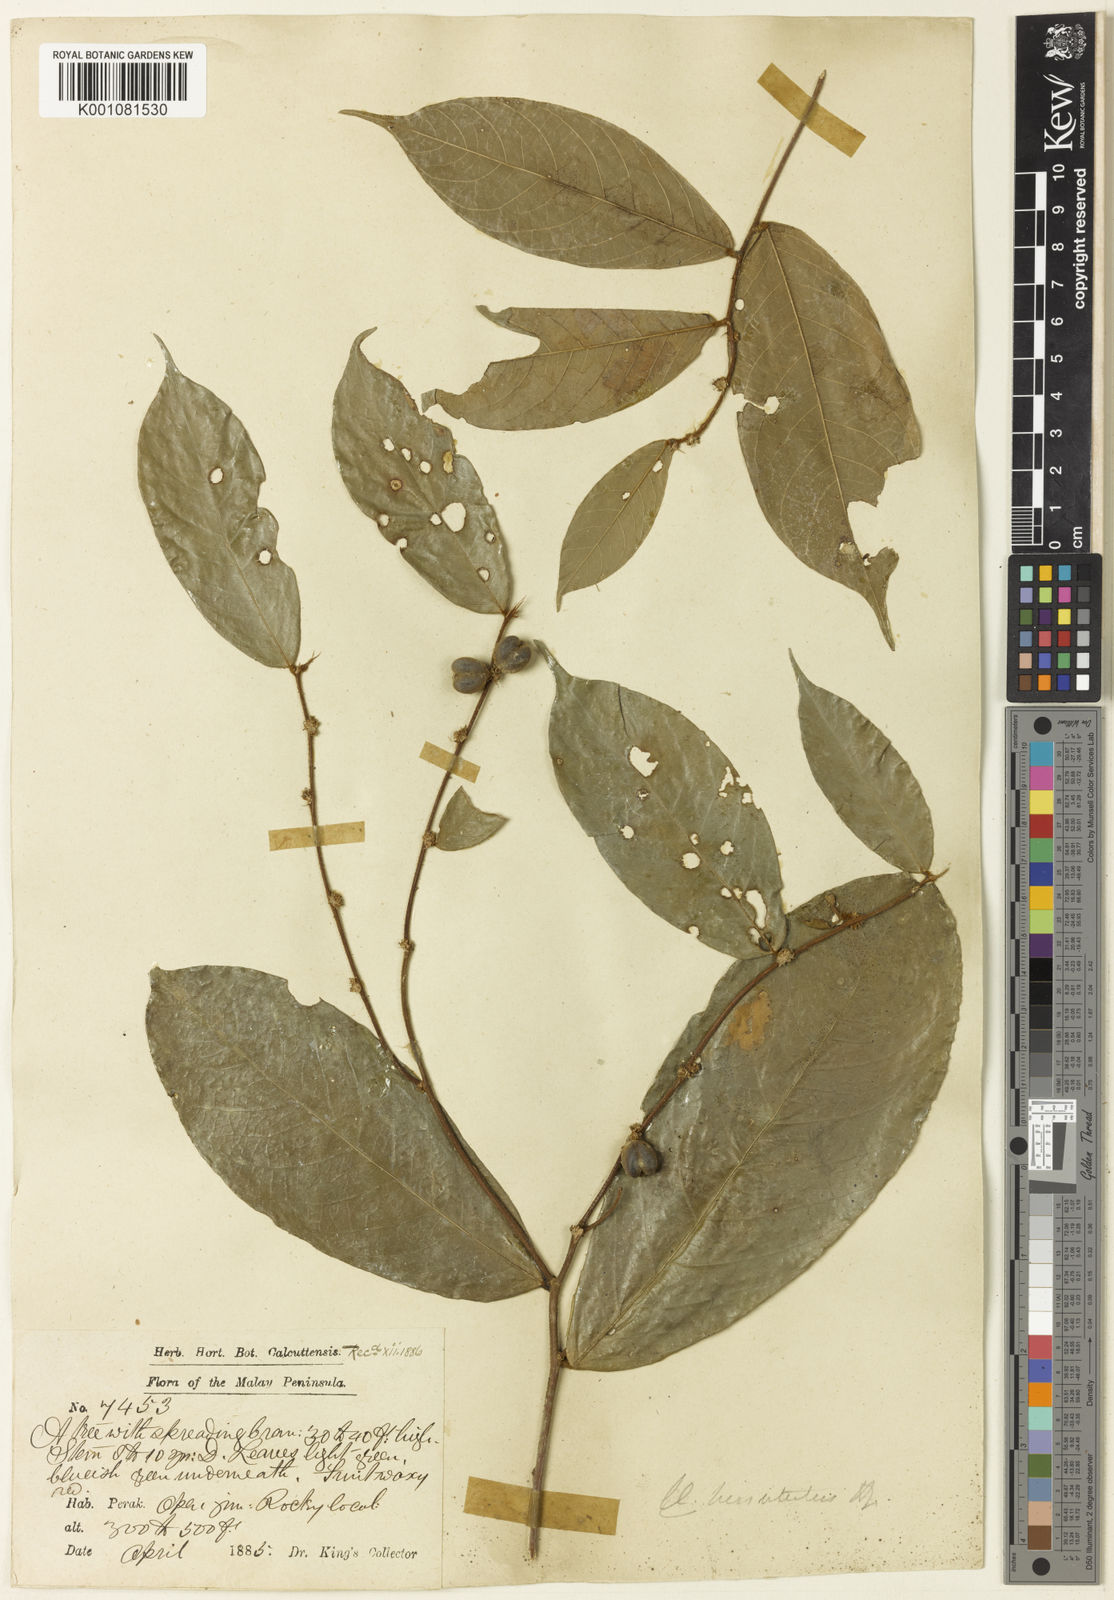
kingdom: Plantae
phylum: Tracheophyta
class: Magnoliopsida
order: Malpighiales
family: Phyllanthaceae
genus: Cleistanthus
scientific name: Cleistanthus hirsutulus
